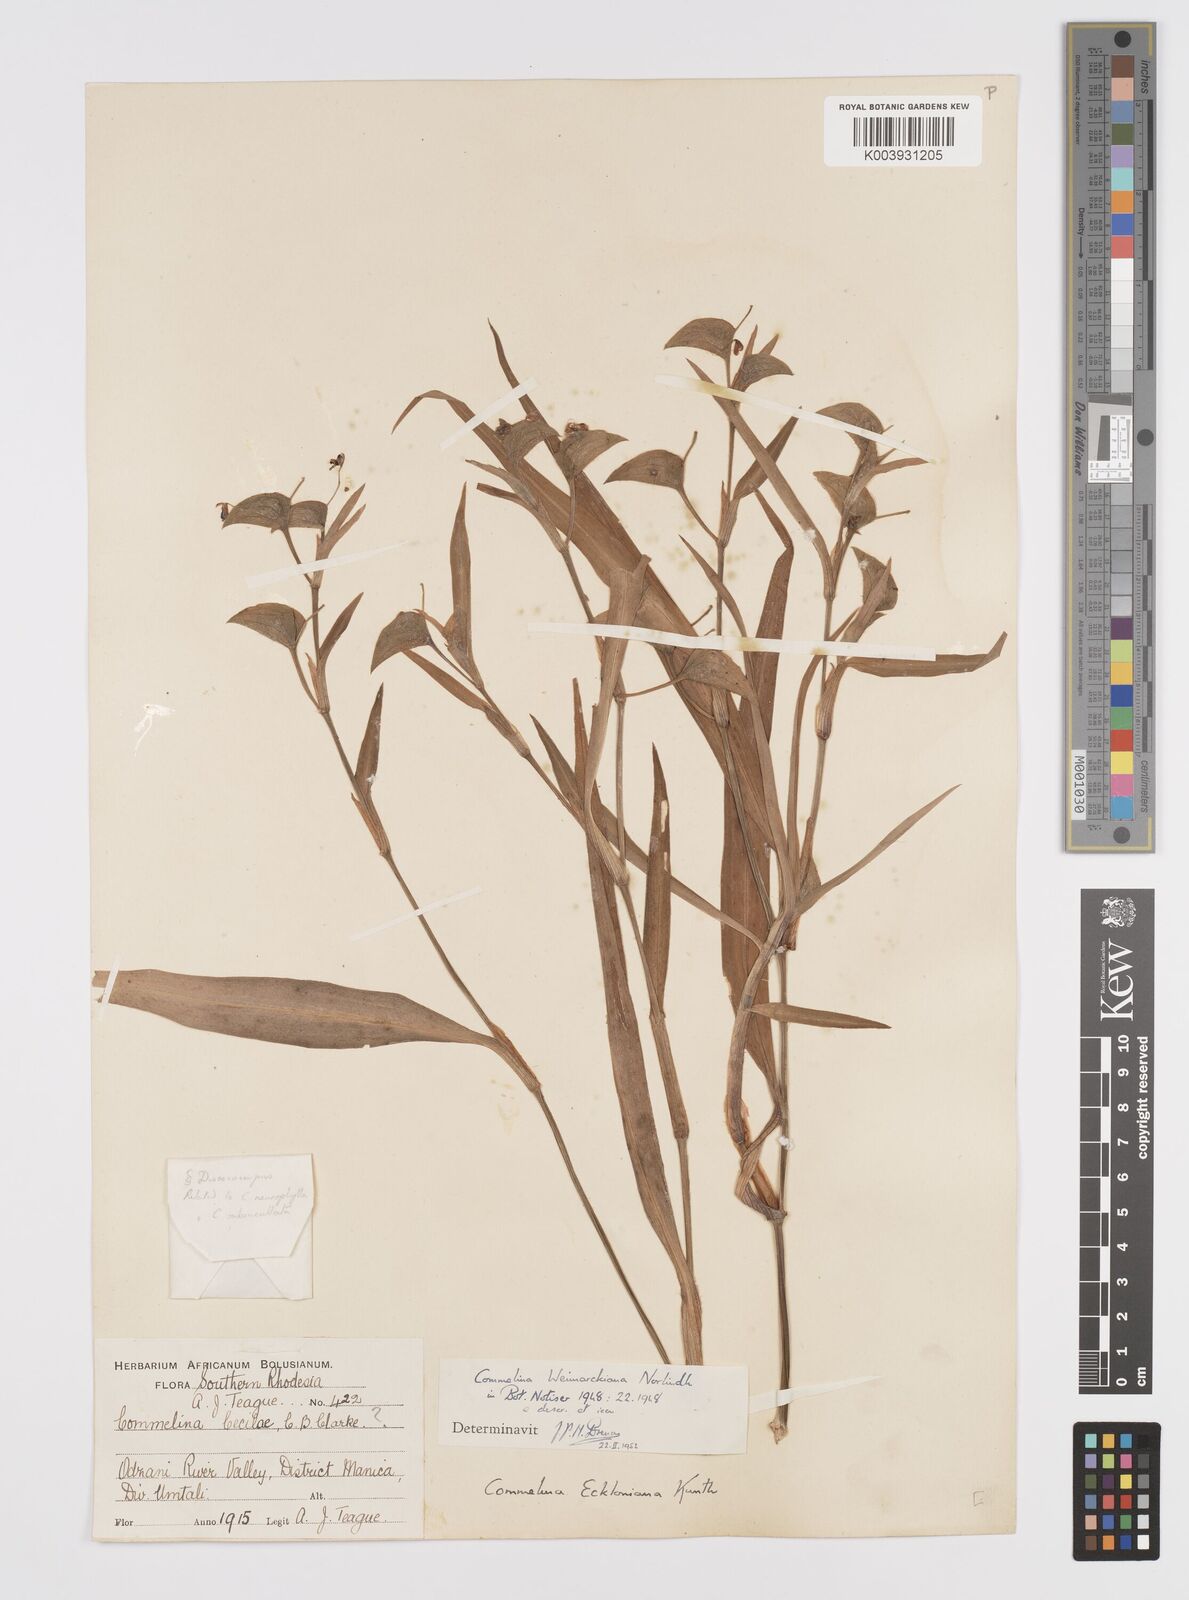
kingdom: Plantae
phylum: Tracheophyta
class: Liliopsida
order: Commelinales
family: Commelinaceae
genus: Commelina
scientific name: Commelina eckloniana
